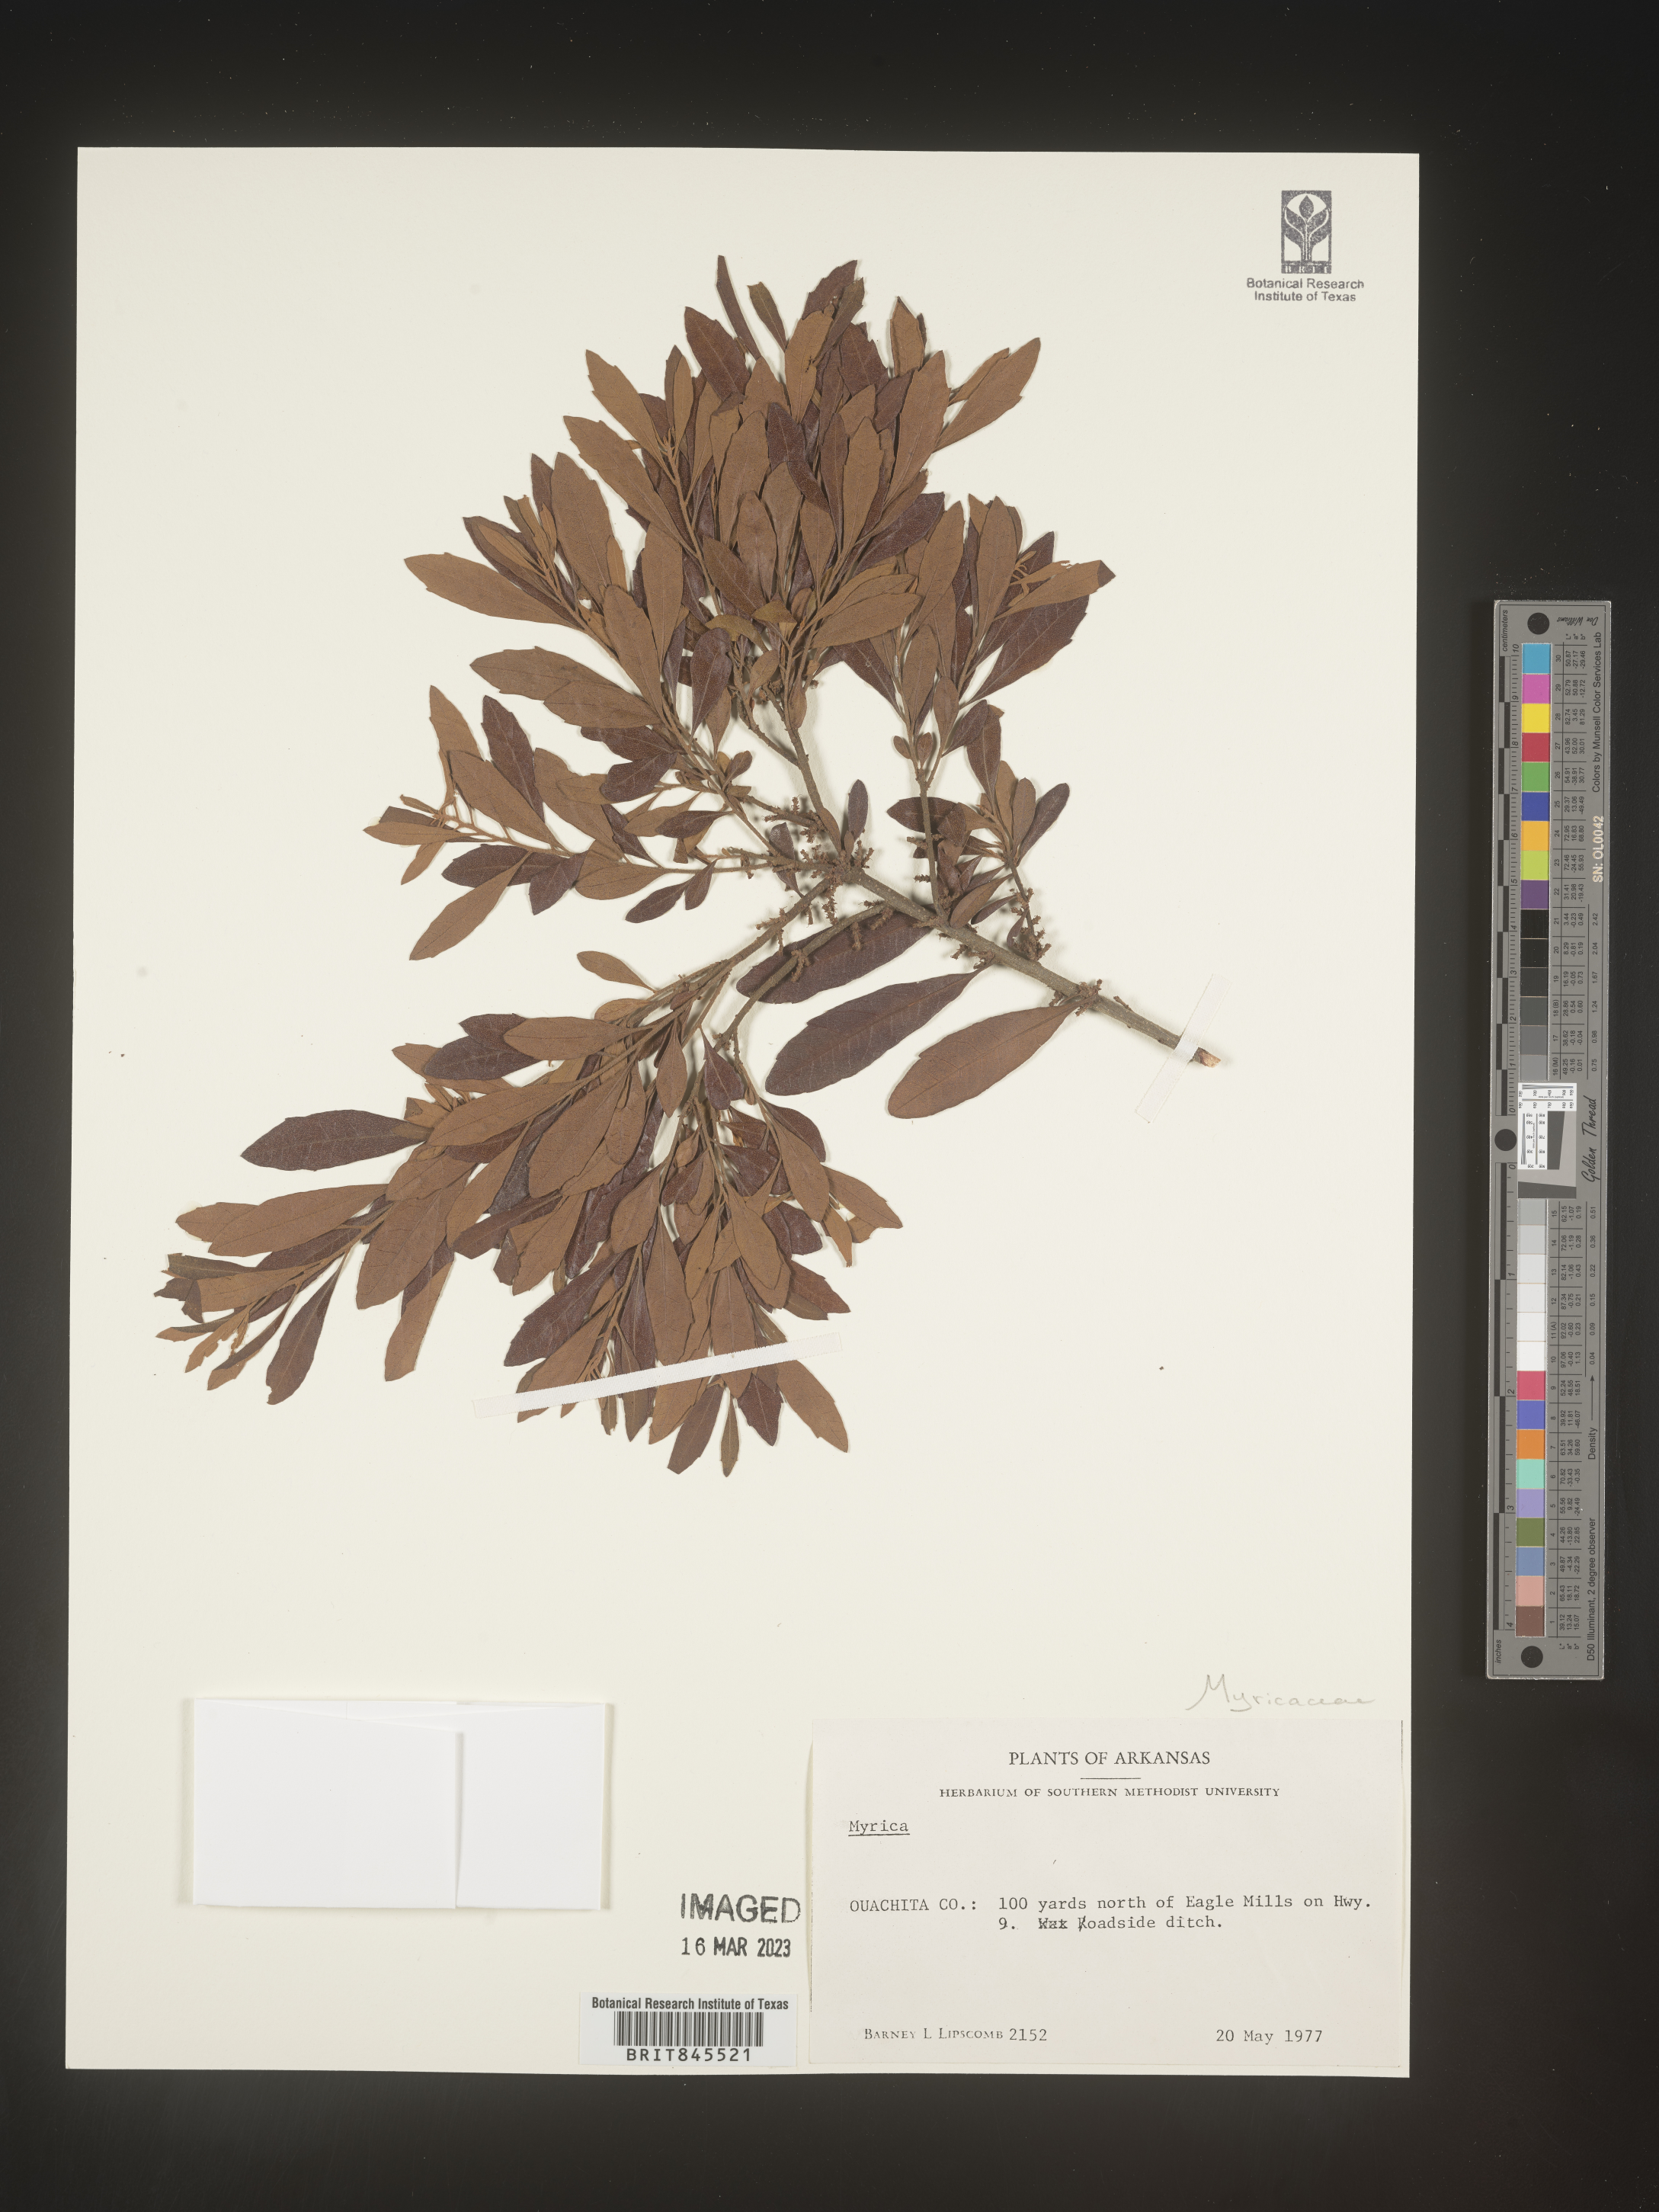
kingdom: Plantae
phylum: Tracheophyta
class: Magnoliopsida
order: Fagales
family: Myricaceae
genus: Myrica
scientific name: Myrica
